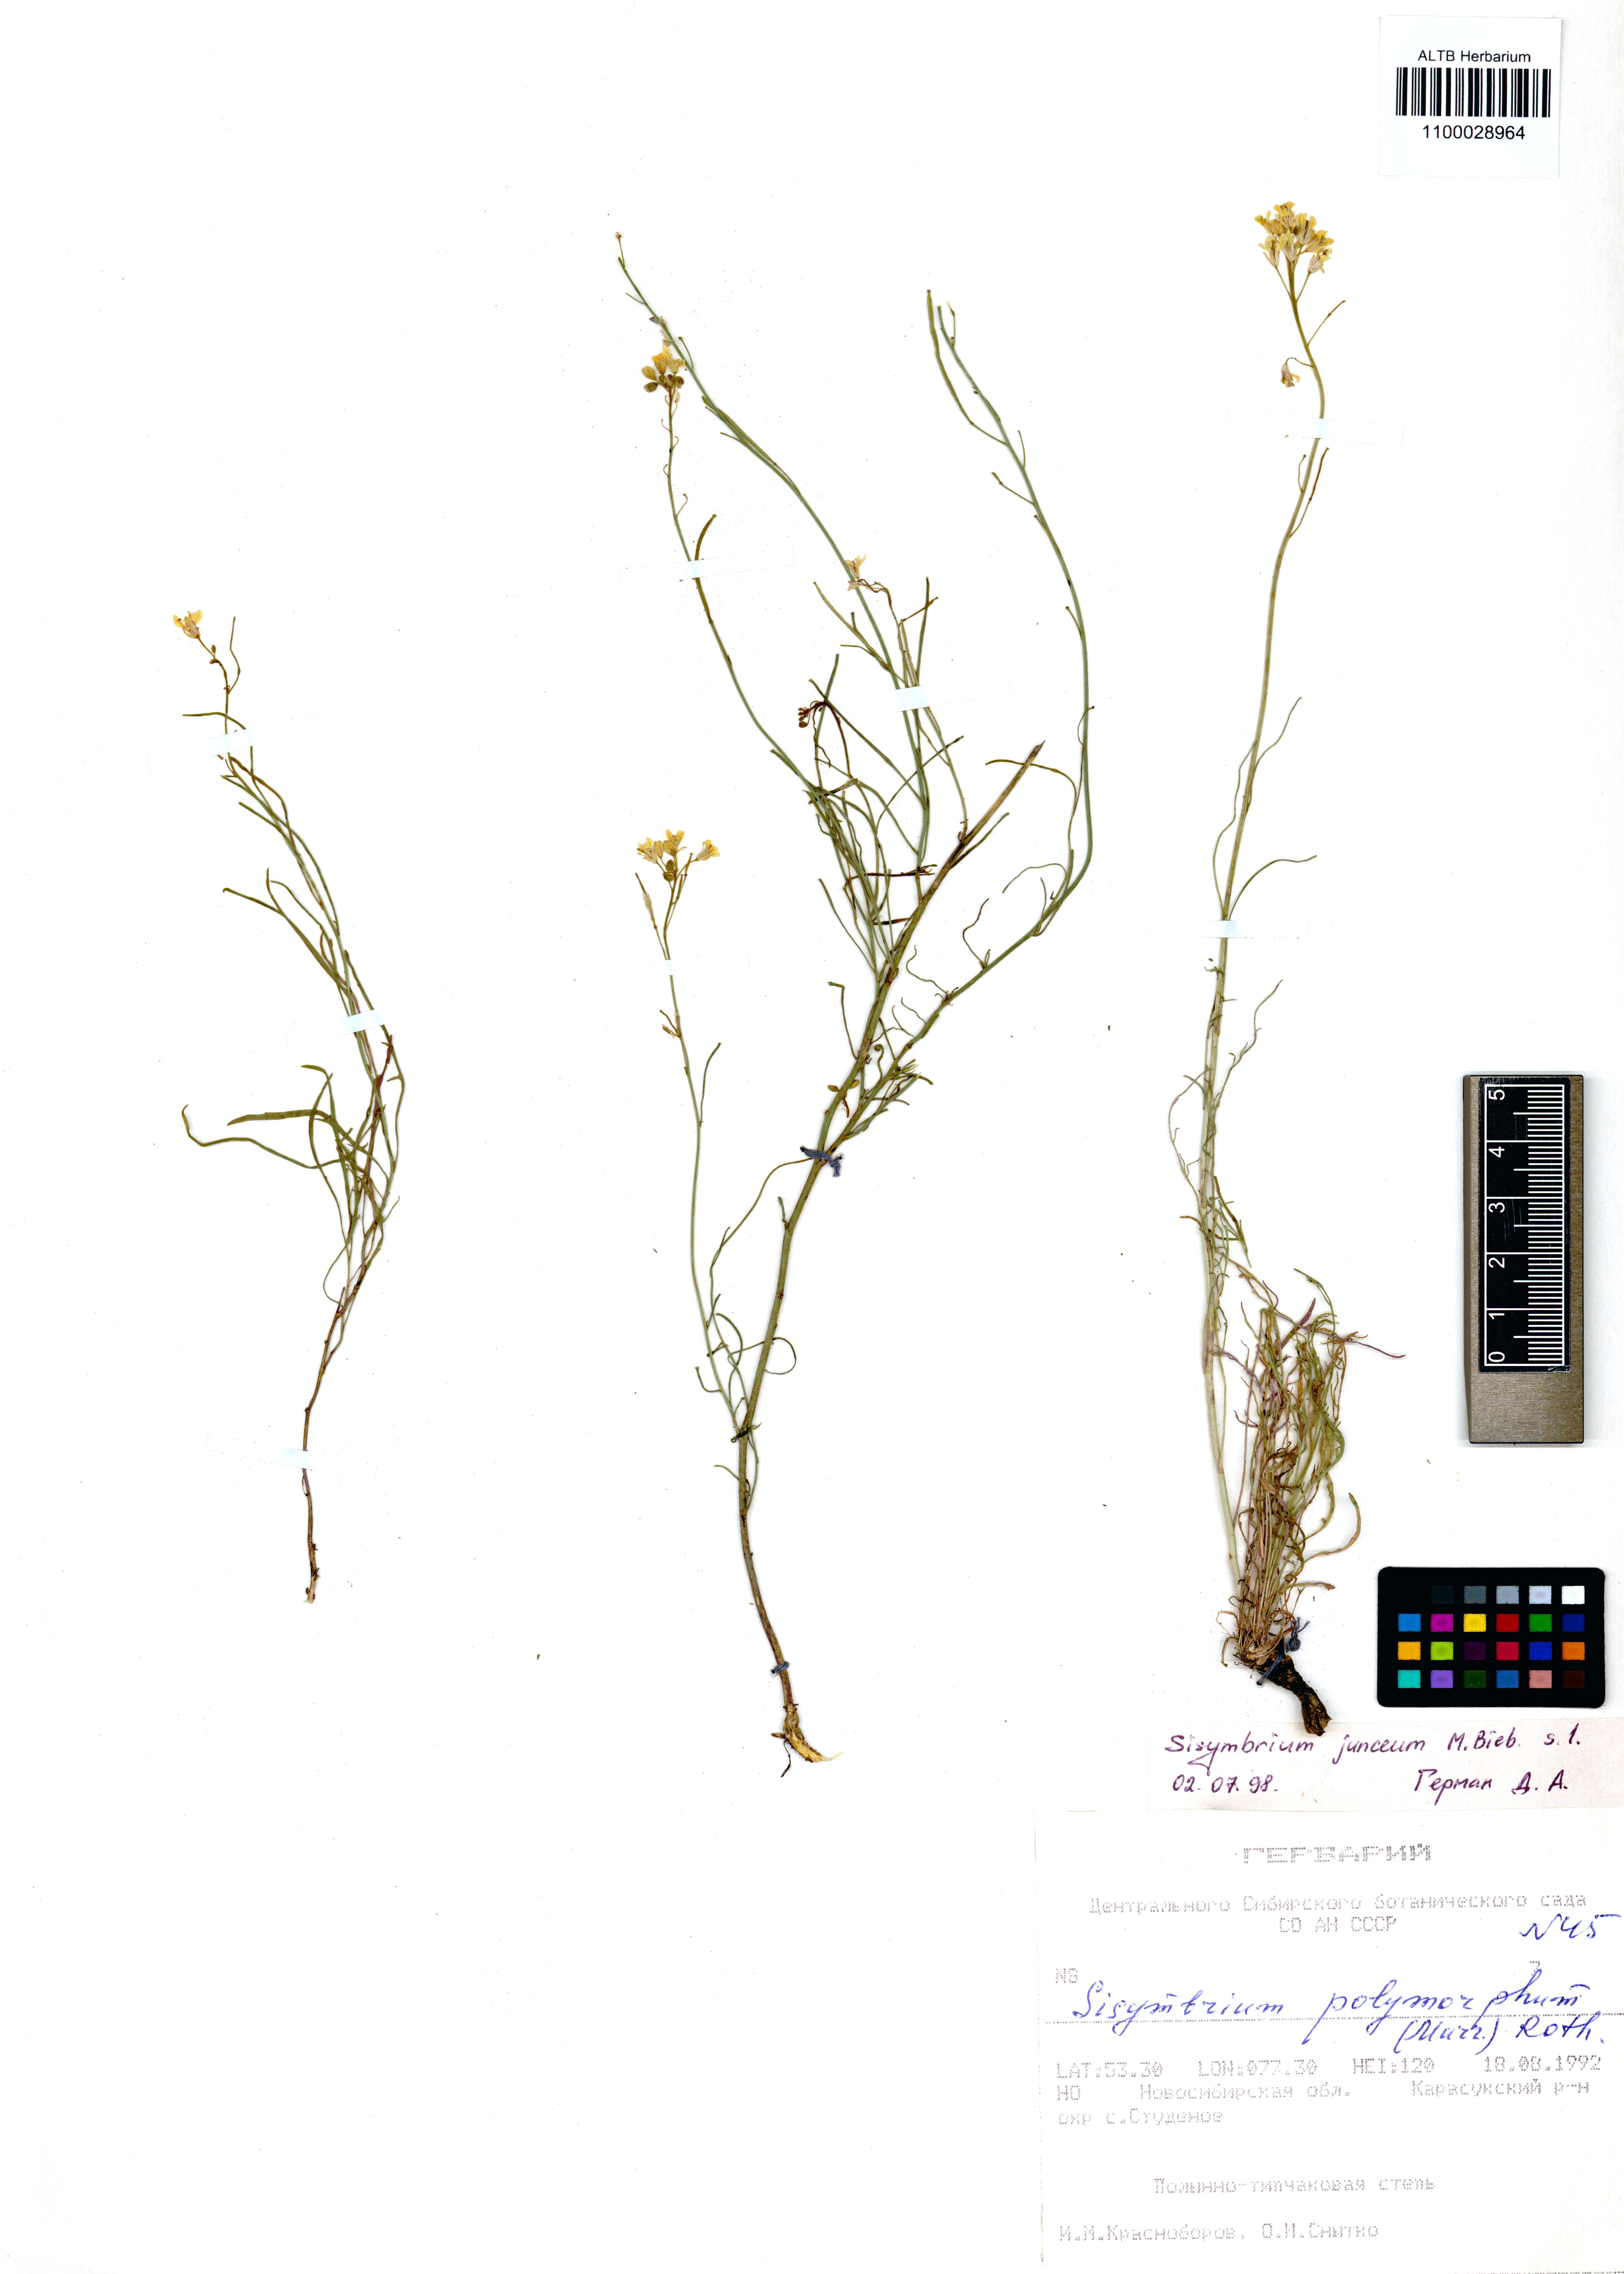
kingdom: Plantae
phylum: Tracheophyta
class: Magnoliopsida
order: Brassicales
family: Brassicaceae
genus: Sisymbrium
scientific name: Sisymbrium polymorphum
